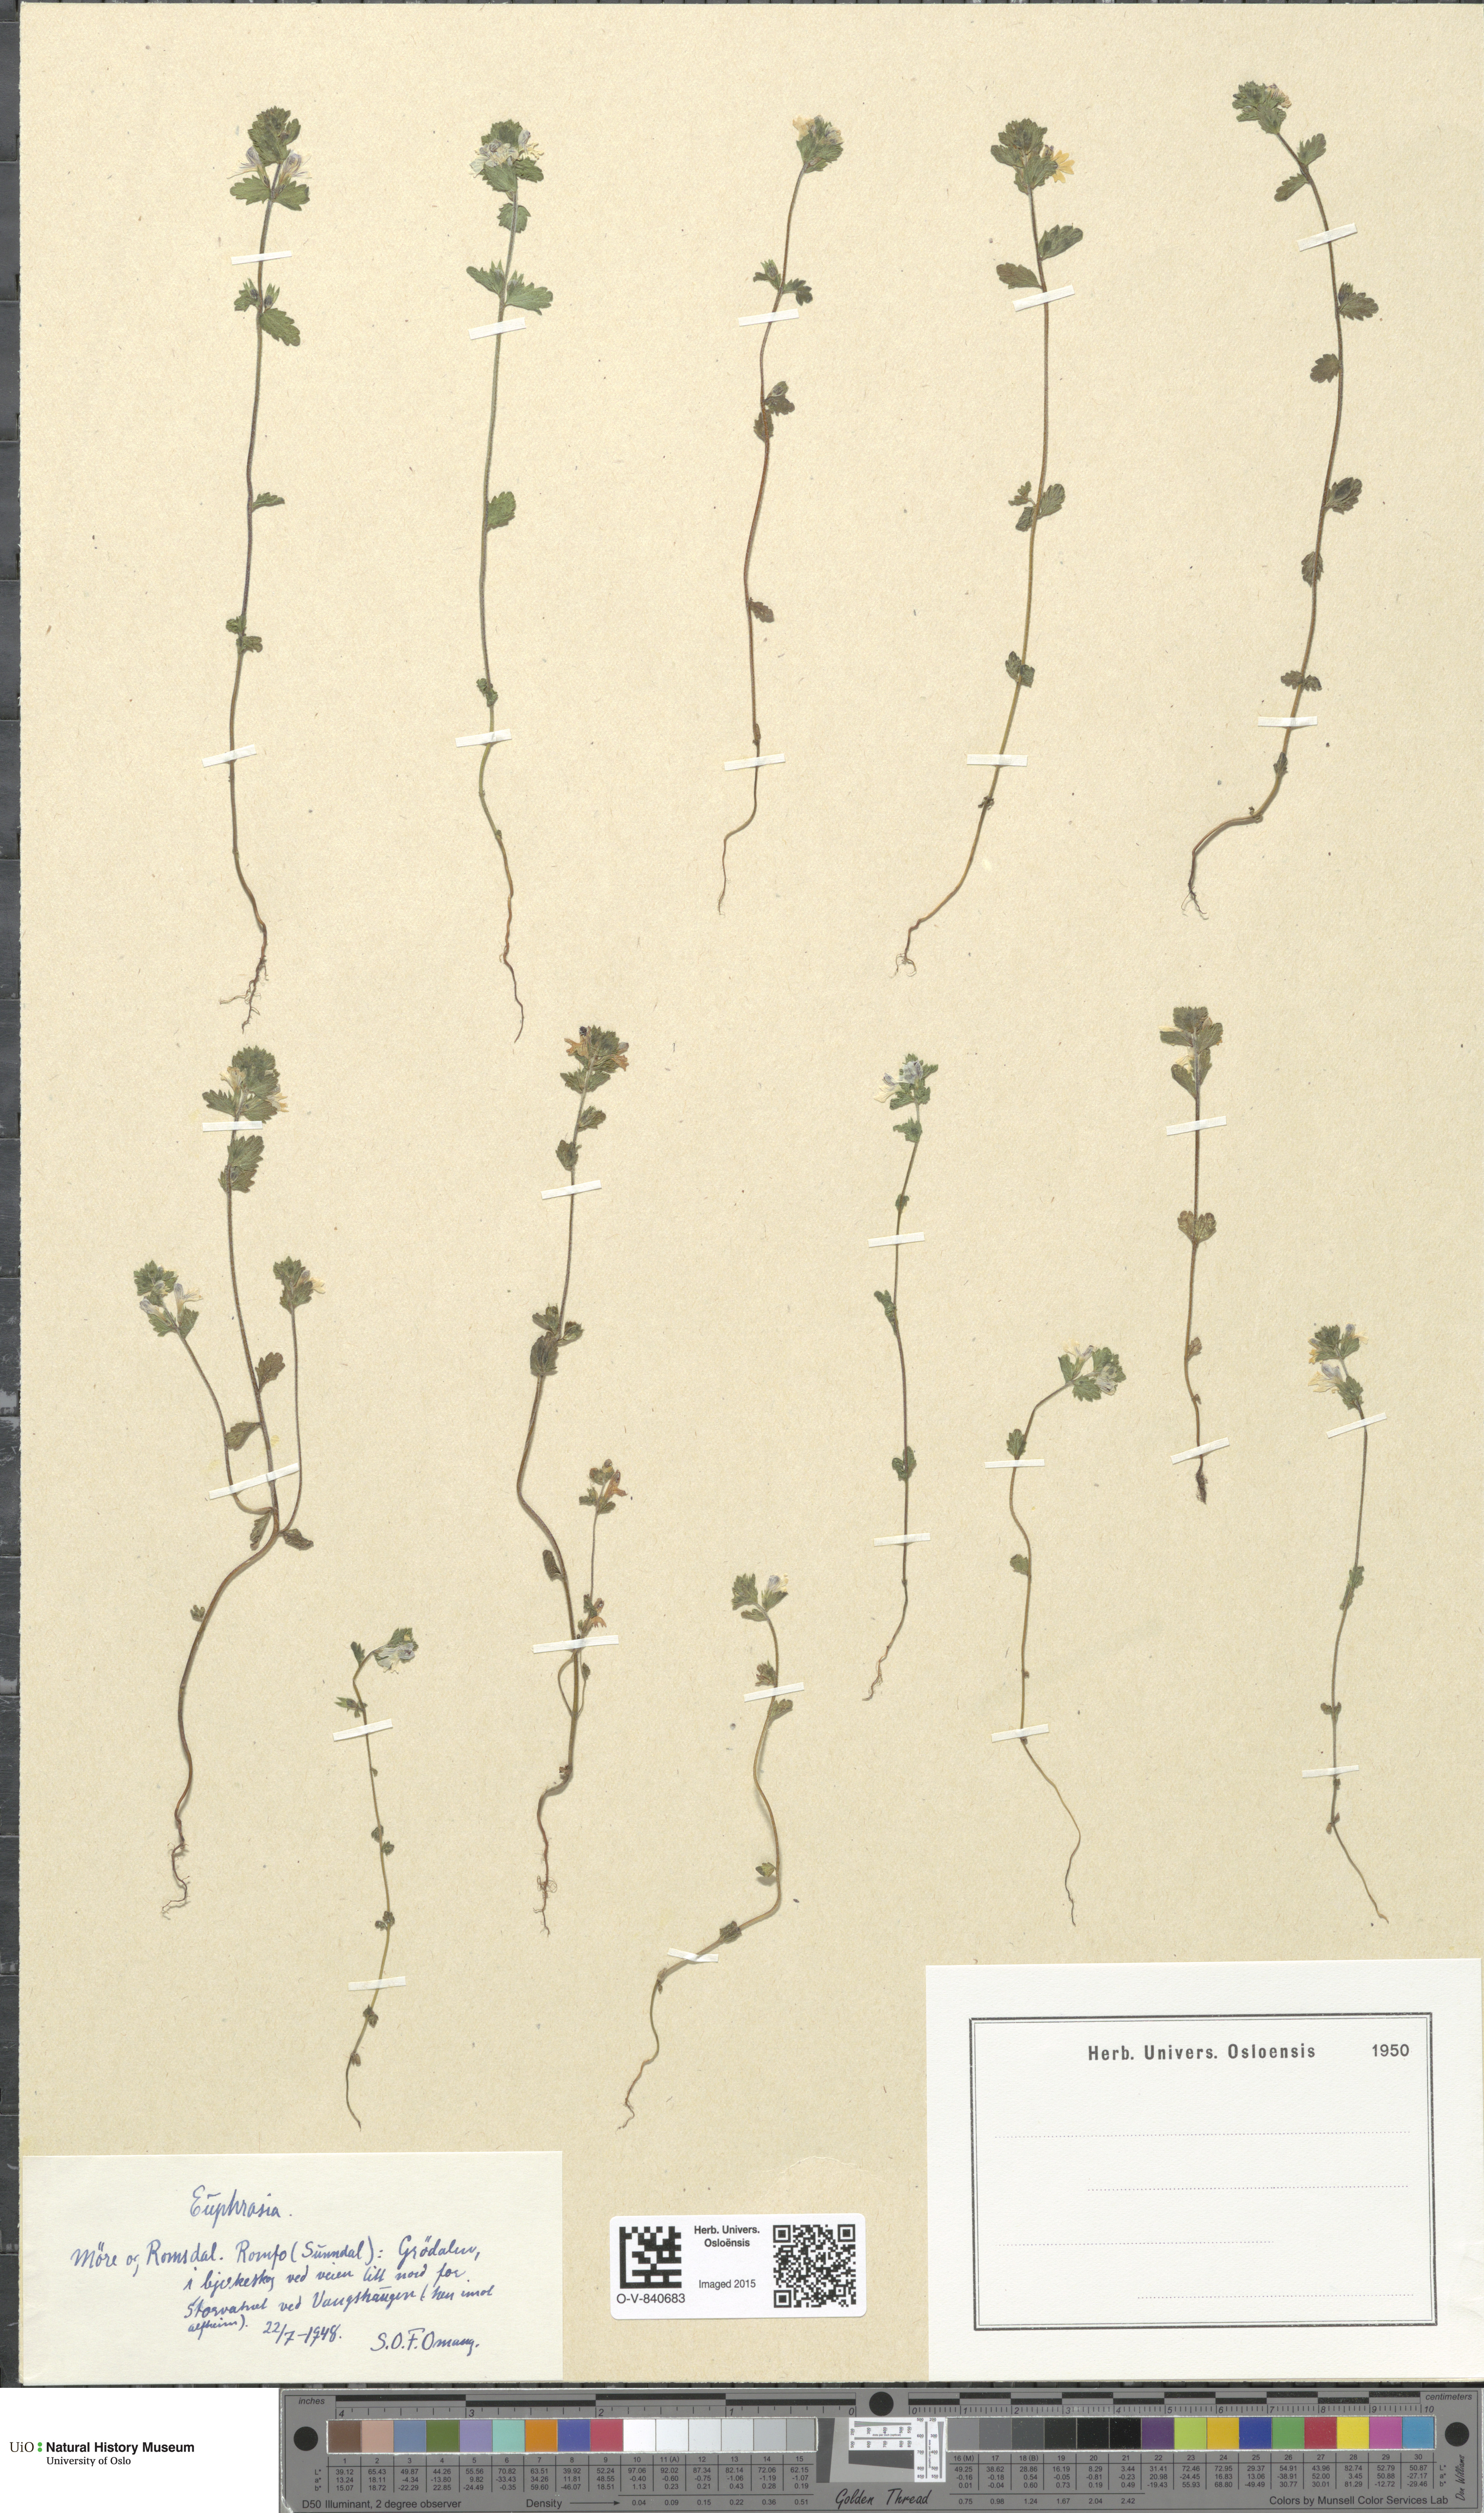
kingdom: Plantae
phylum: Tracheophyta
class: Magnoliopsida
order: Lamiales
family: Orobanchaceae
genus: Euphrasia
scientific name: Euphrasia
